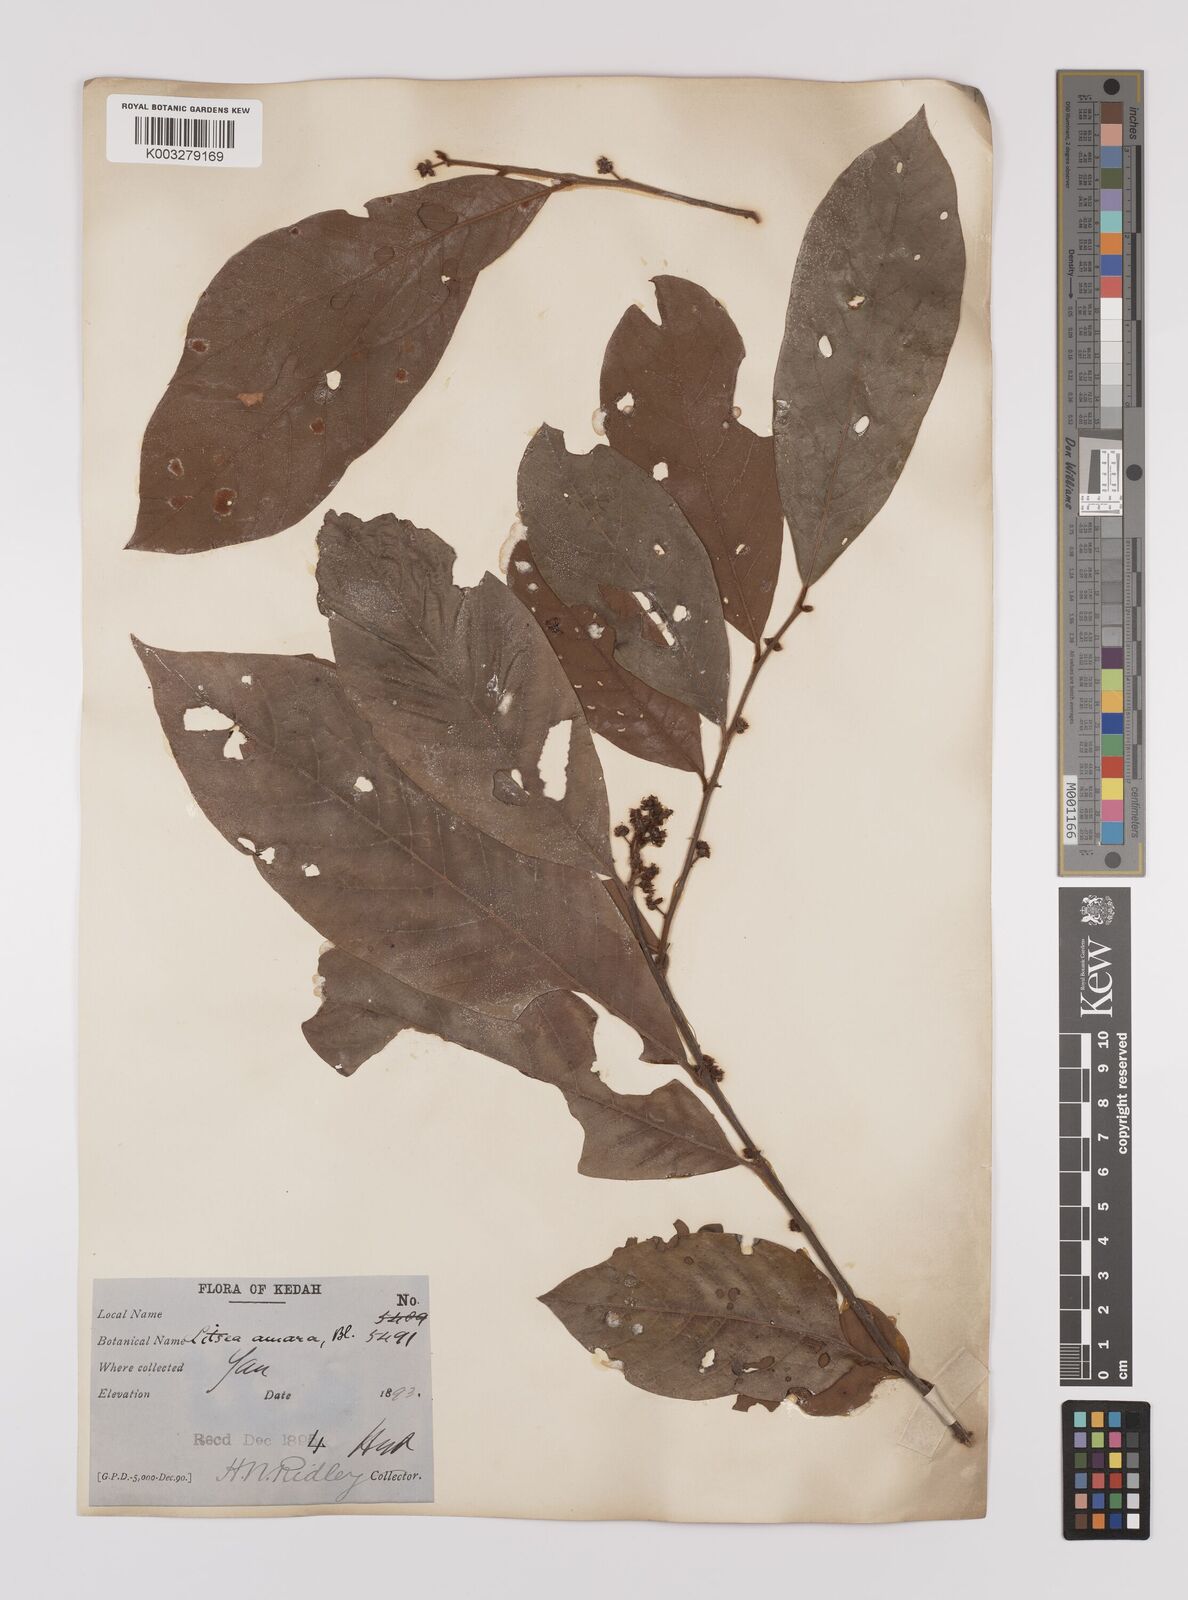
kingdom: Plantae
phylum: Tracheophyta
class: Magnoliopsida
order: Laurales
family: Lauraceae
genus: Litsea
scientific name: Litsea umbellata
